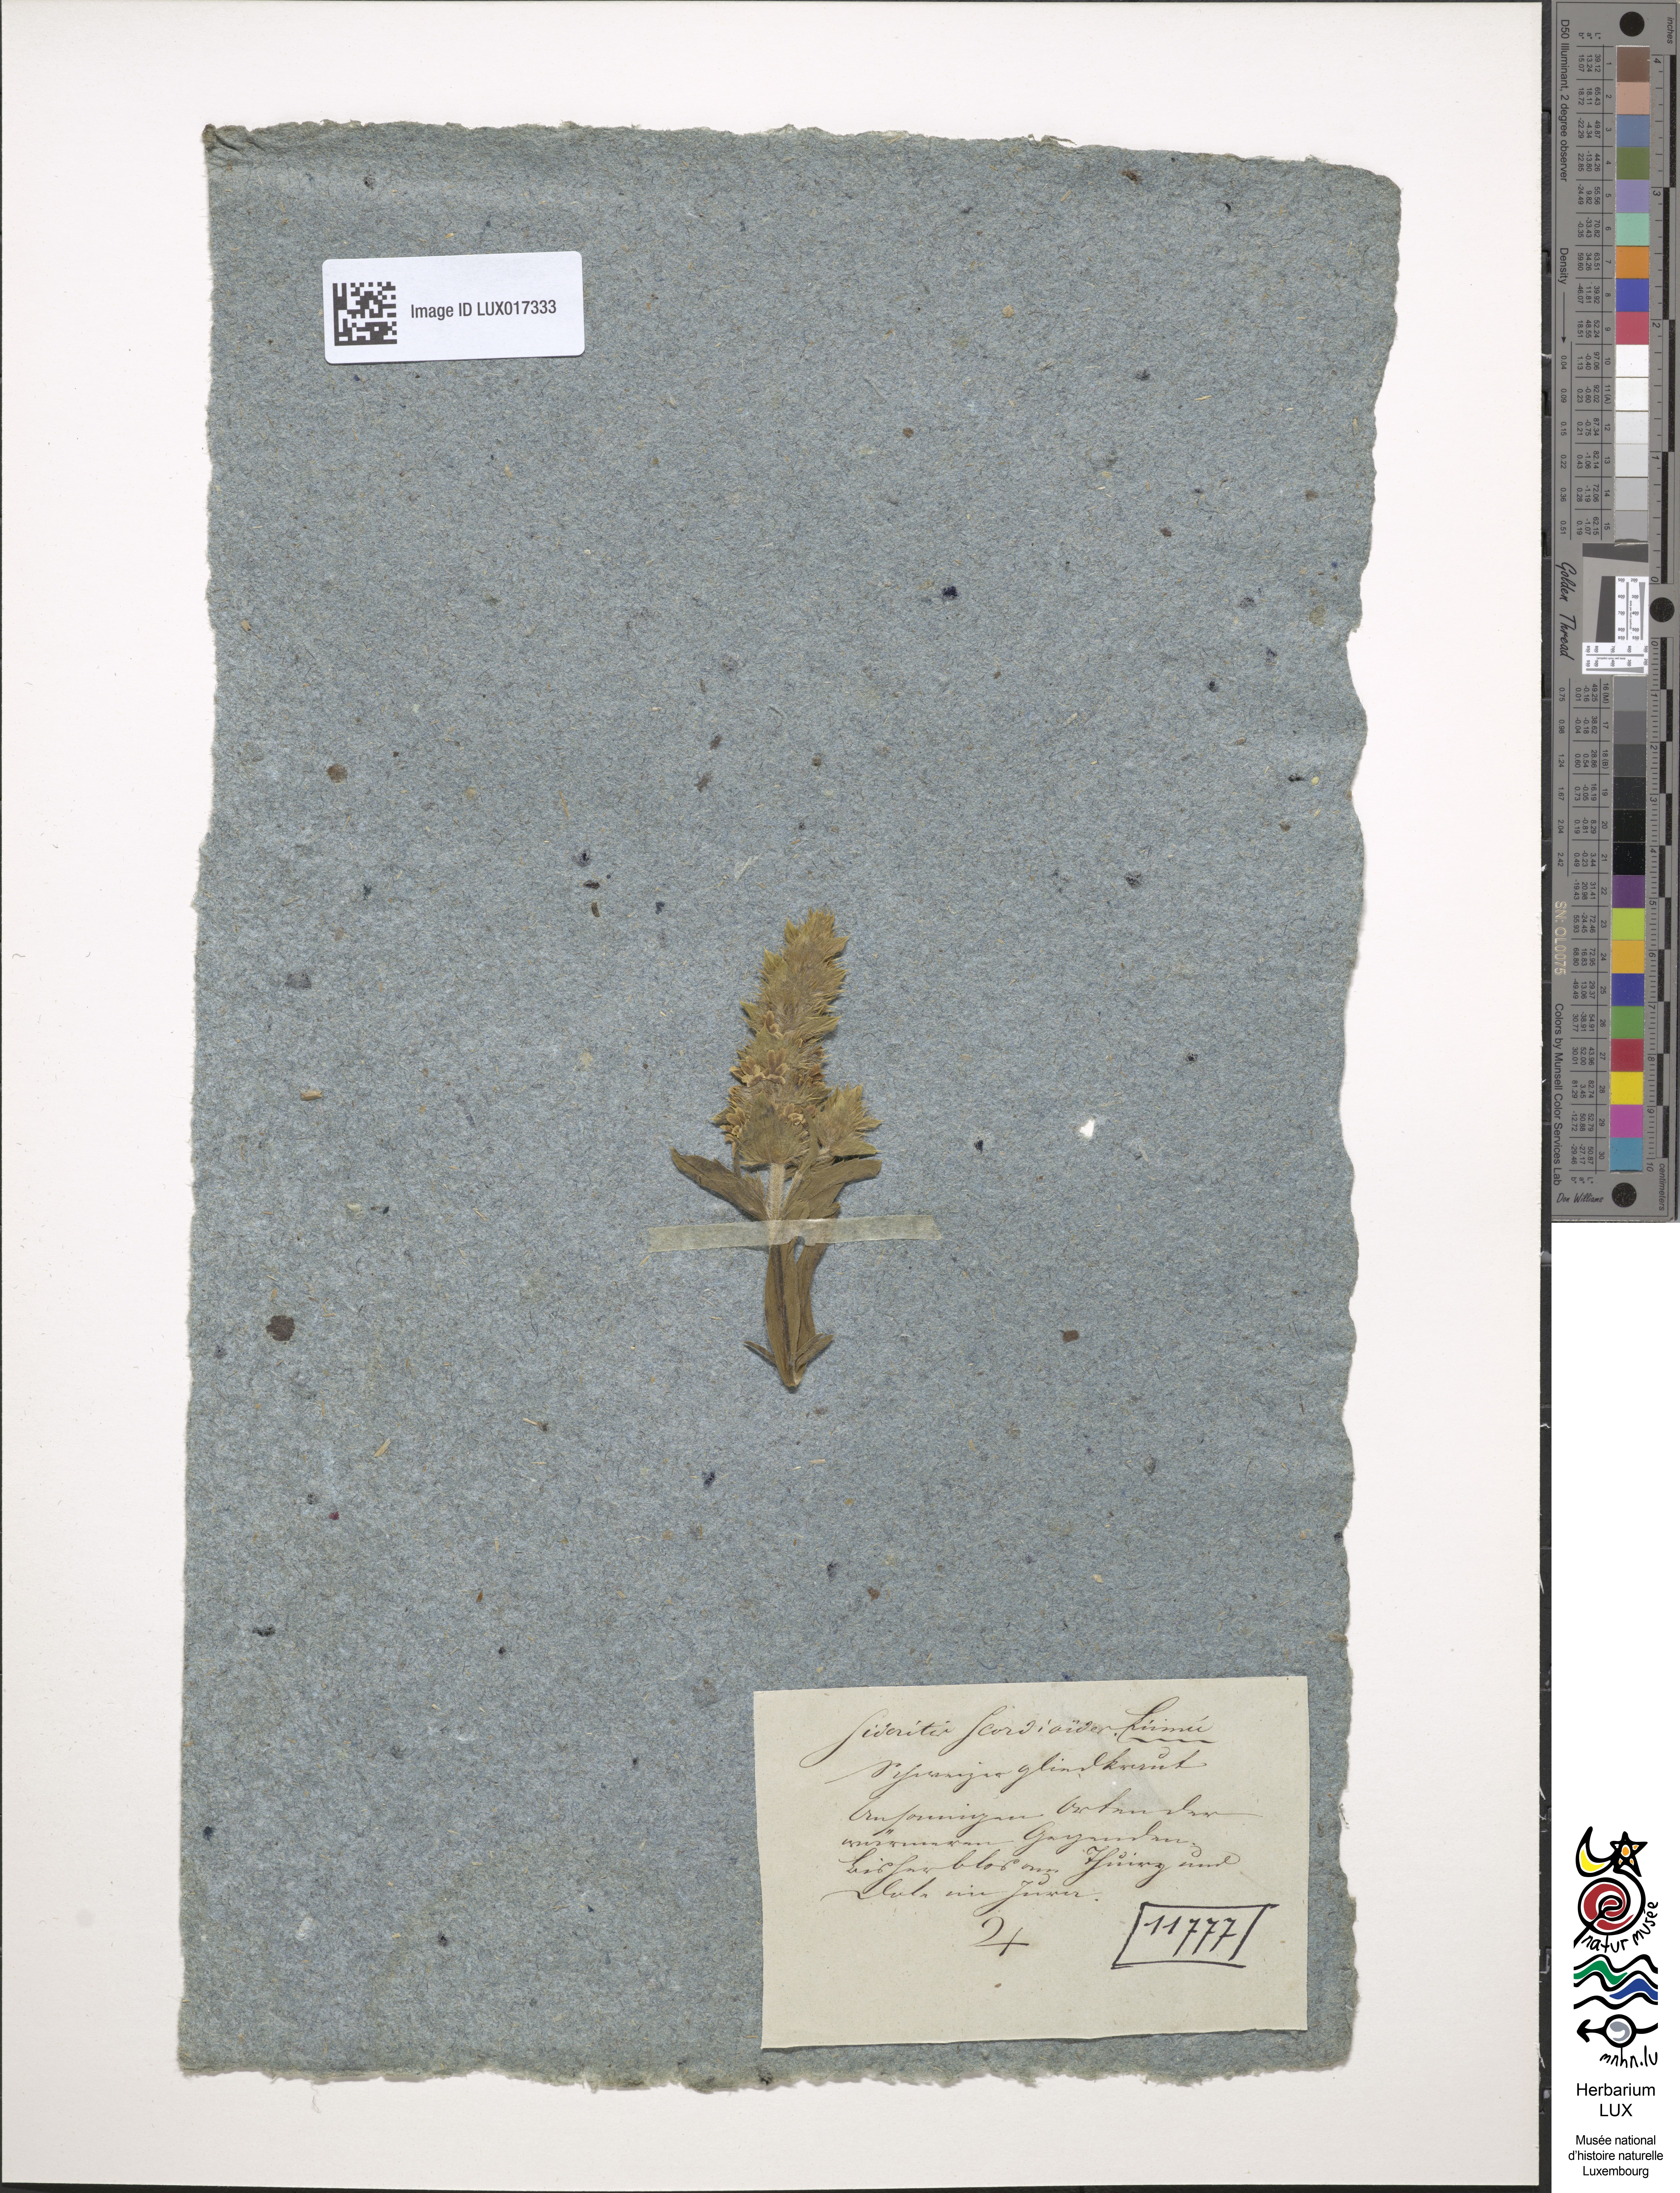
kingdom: Plantae
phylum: Tracheophyta
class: Magnoliopsida
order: Lamiales
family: Lamiaceae
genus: Sideritis
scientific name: Sideritis hyssopifolia
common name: Mountain tea
